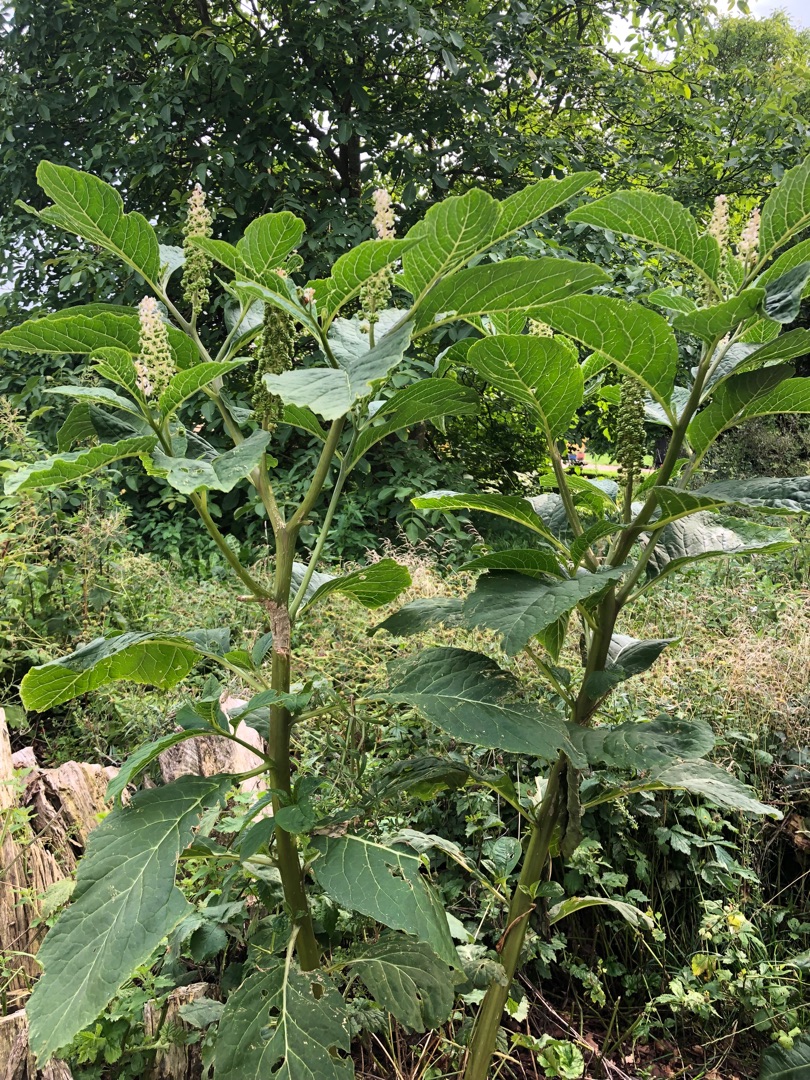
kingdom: Plantae
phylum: Tracheophyta
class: Magnoliopsida
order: Caryophyllales
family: Phytolaccaceae
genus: Phytolacca
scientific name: Phytolacca acinosa
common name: Asiatisk kermesbær
